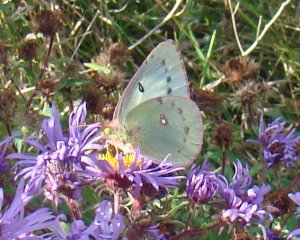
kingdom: Animalia
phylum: Arthropoda
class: Insecta
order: Lepidoptera
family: Pieridae
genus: Colias
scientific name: Colias philodice
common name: Clouded Sulphur
